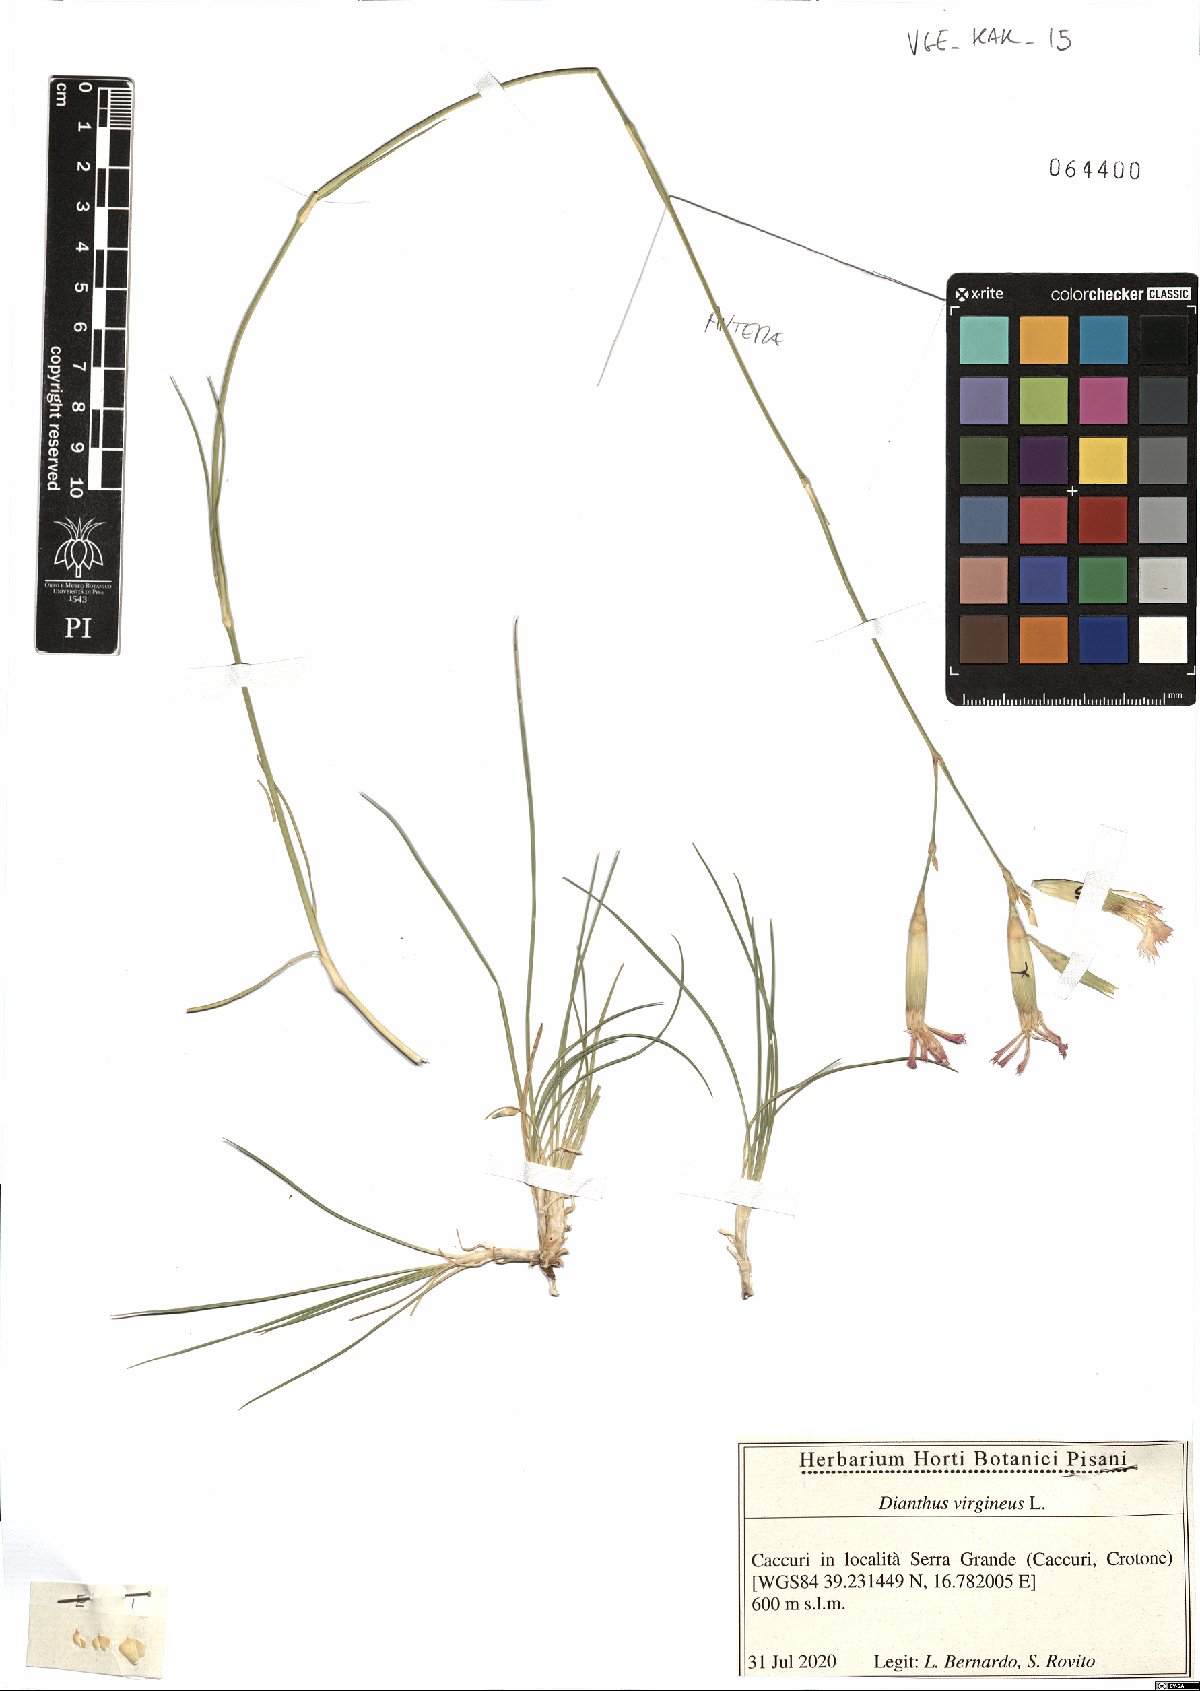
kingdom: Plantae
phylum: Tracheophyta
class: Magnoliopsida
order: Caryophyllales
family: Caryophyllaceae
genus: Dianthus
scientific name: Dianthus virgineus
